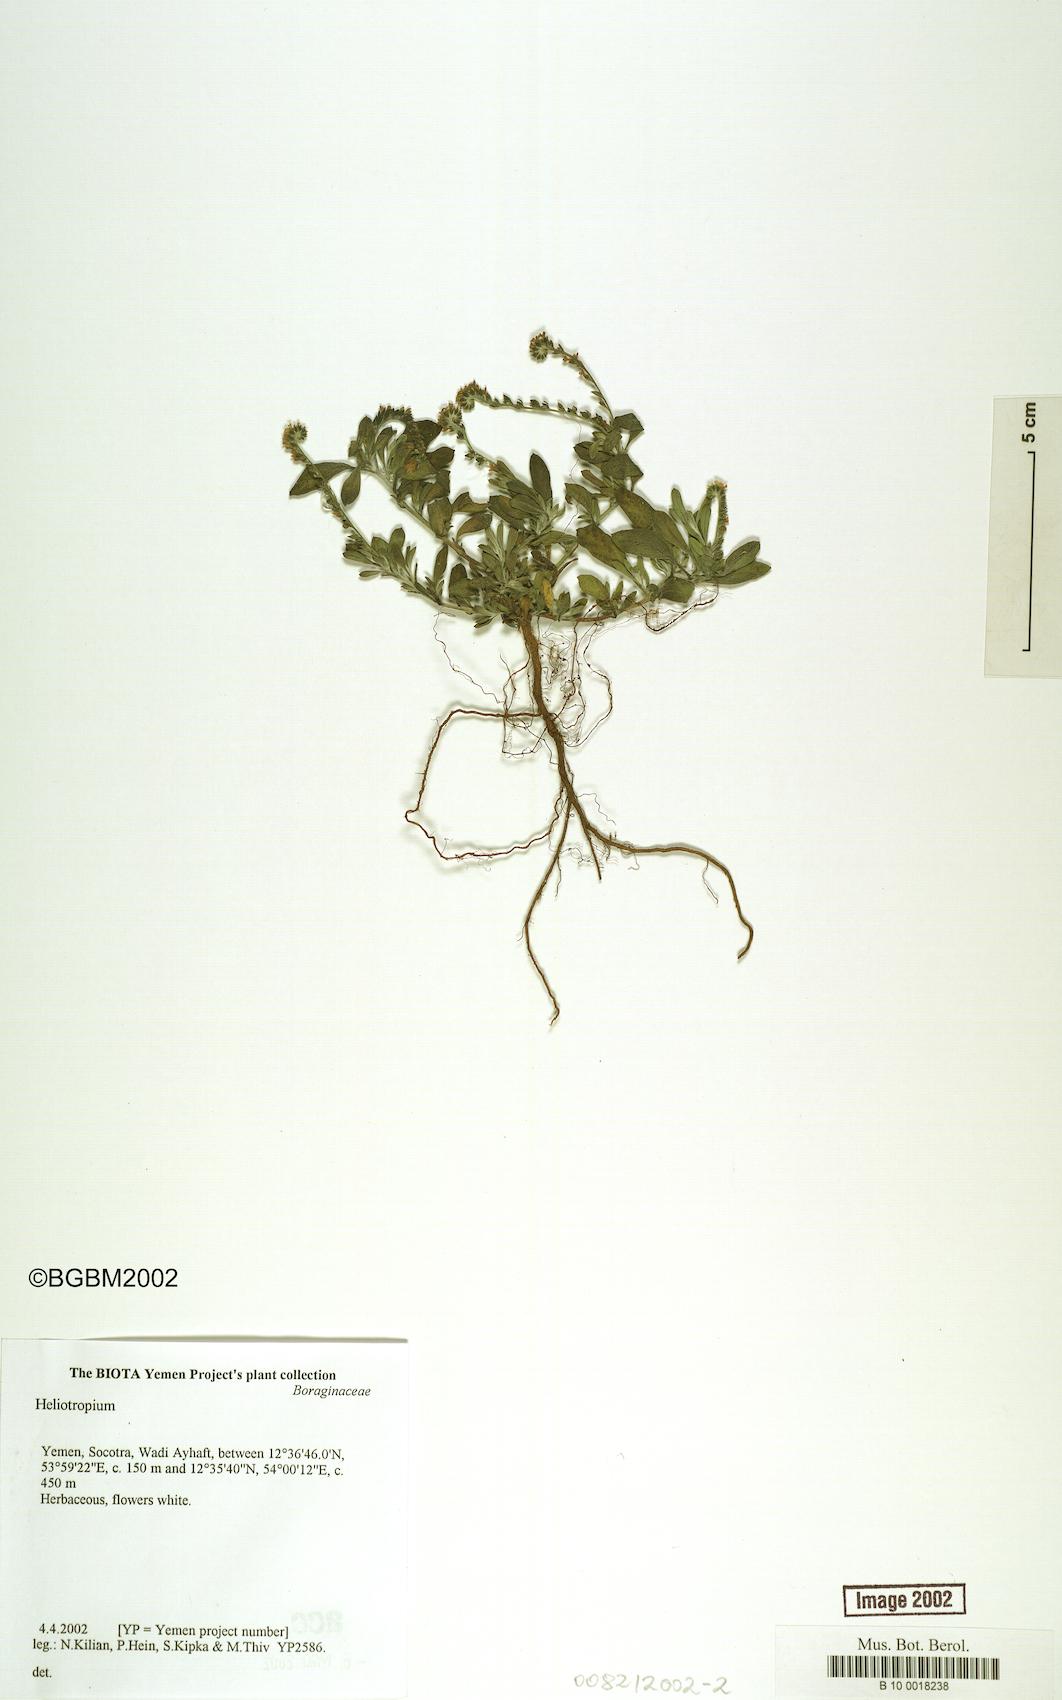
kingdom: Plantae
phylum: Tracheophyta
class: Magnoliopsida
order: Boraginales
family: Heliotropiaceae
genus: Heliotropium
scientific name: Heliotropium
